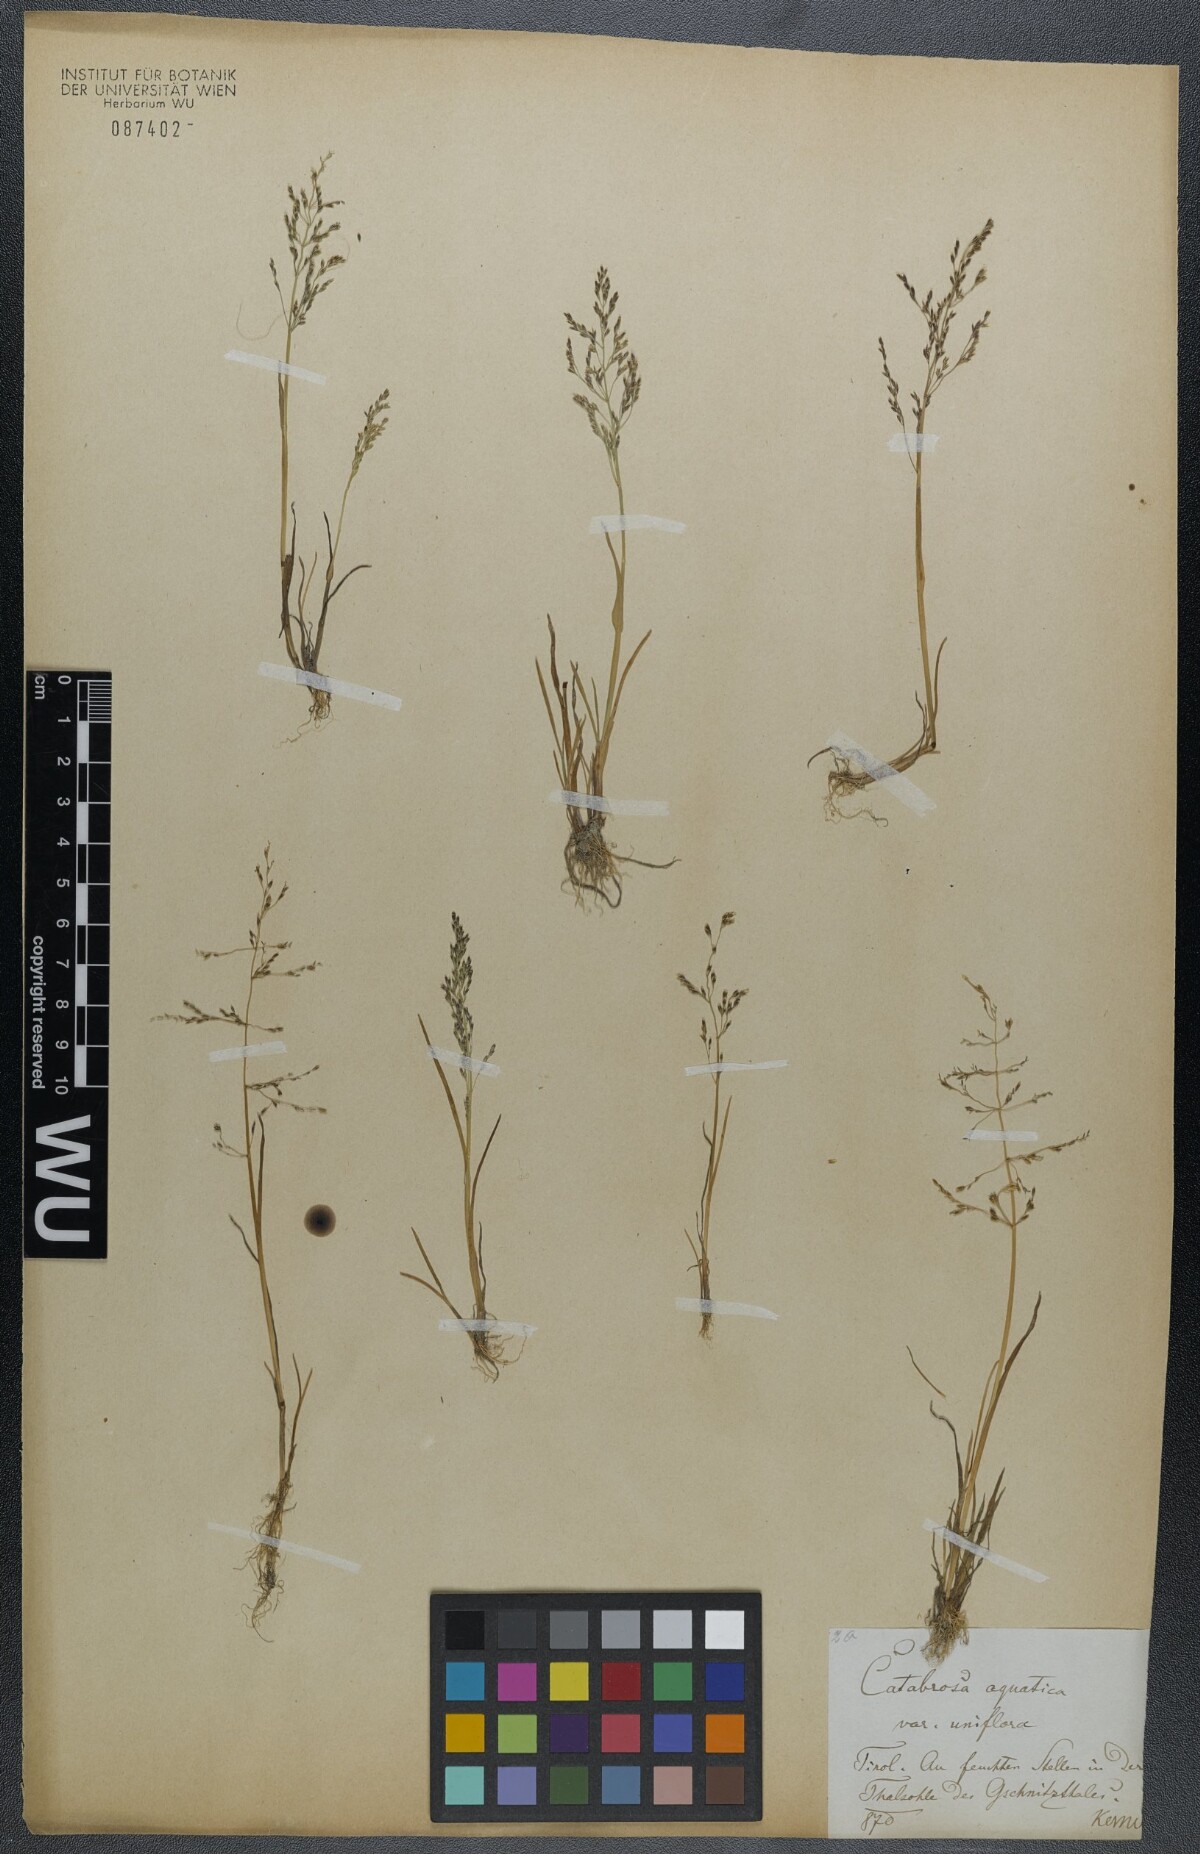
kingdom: Plantae
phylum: Tracheophyta
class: Liliopsida
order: Poales
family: Poaceae
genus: Catabrosa
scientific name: Catabrosa aquatica
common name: Whorl-grass
